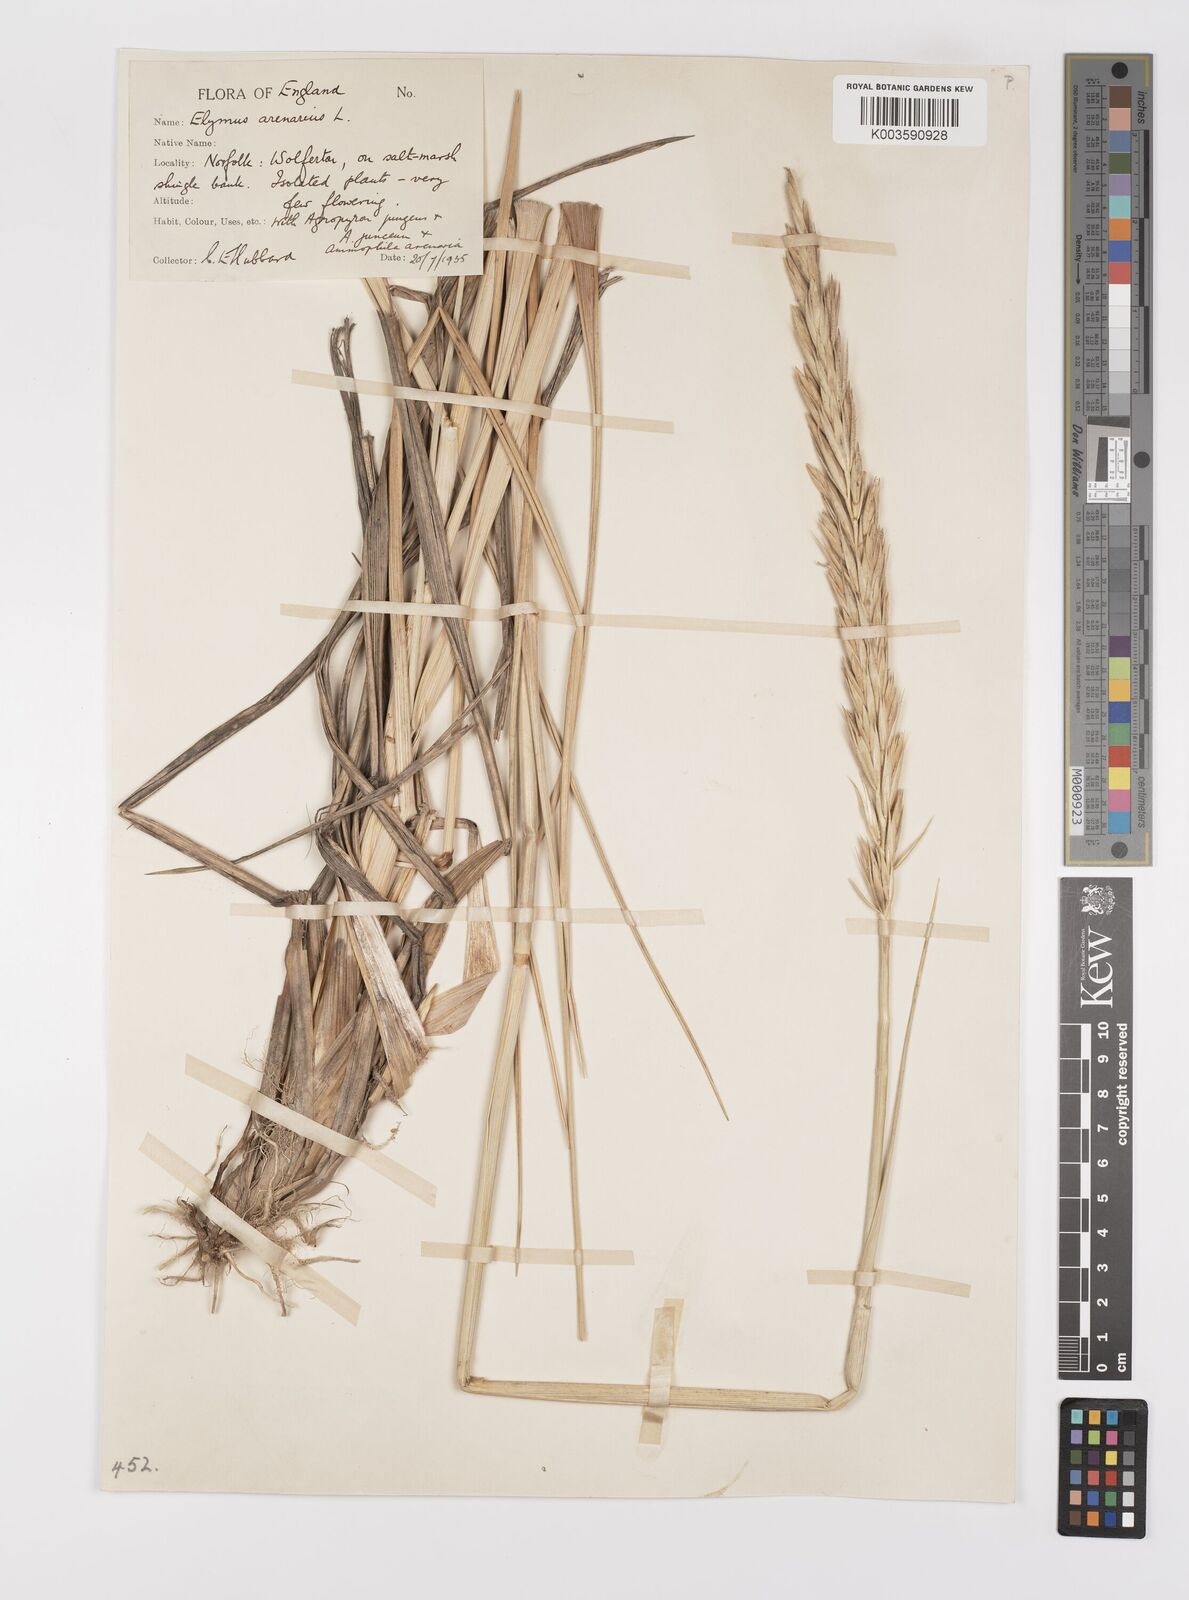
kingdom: Plantae
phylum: Tracheophyta
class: Liliopsida
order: Poales
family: Poaceae
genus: Leymus
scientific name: Leymus arenarius
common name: Lyme-grass
